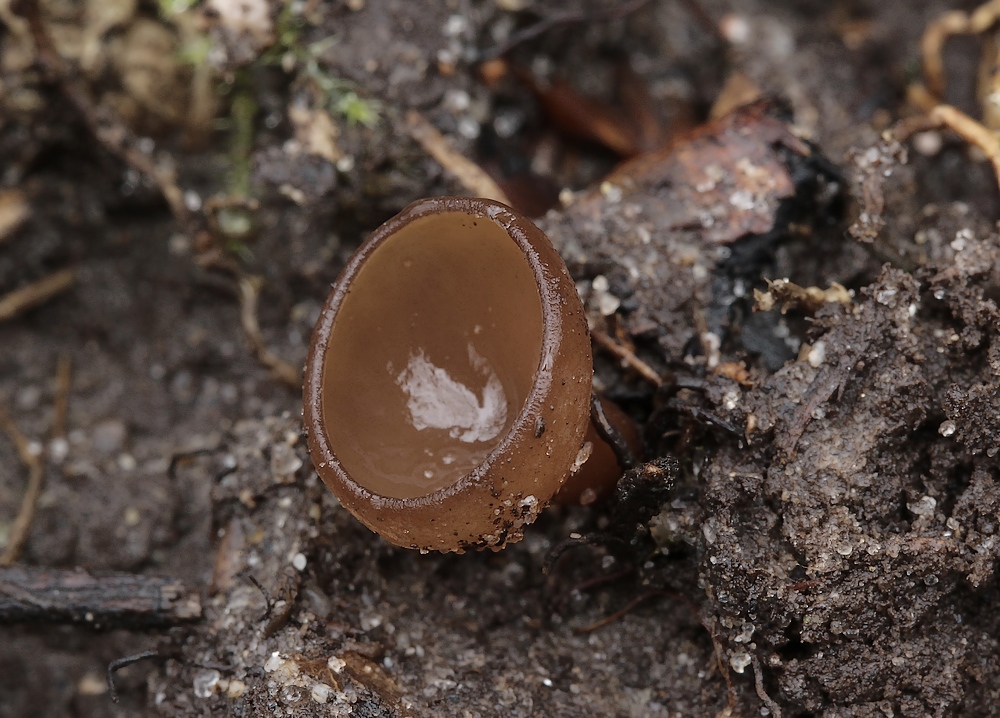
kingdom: Fungi
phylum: Ascomycota
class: Leotiomycetes
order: Helotiales
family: Sclerotiniaceae
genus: Dumontinia
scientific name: Dumontinia tuberosa
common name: anemone-knoldskive
